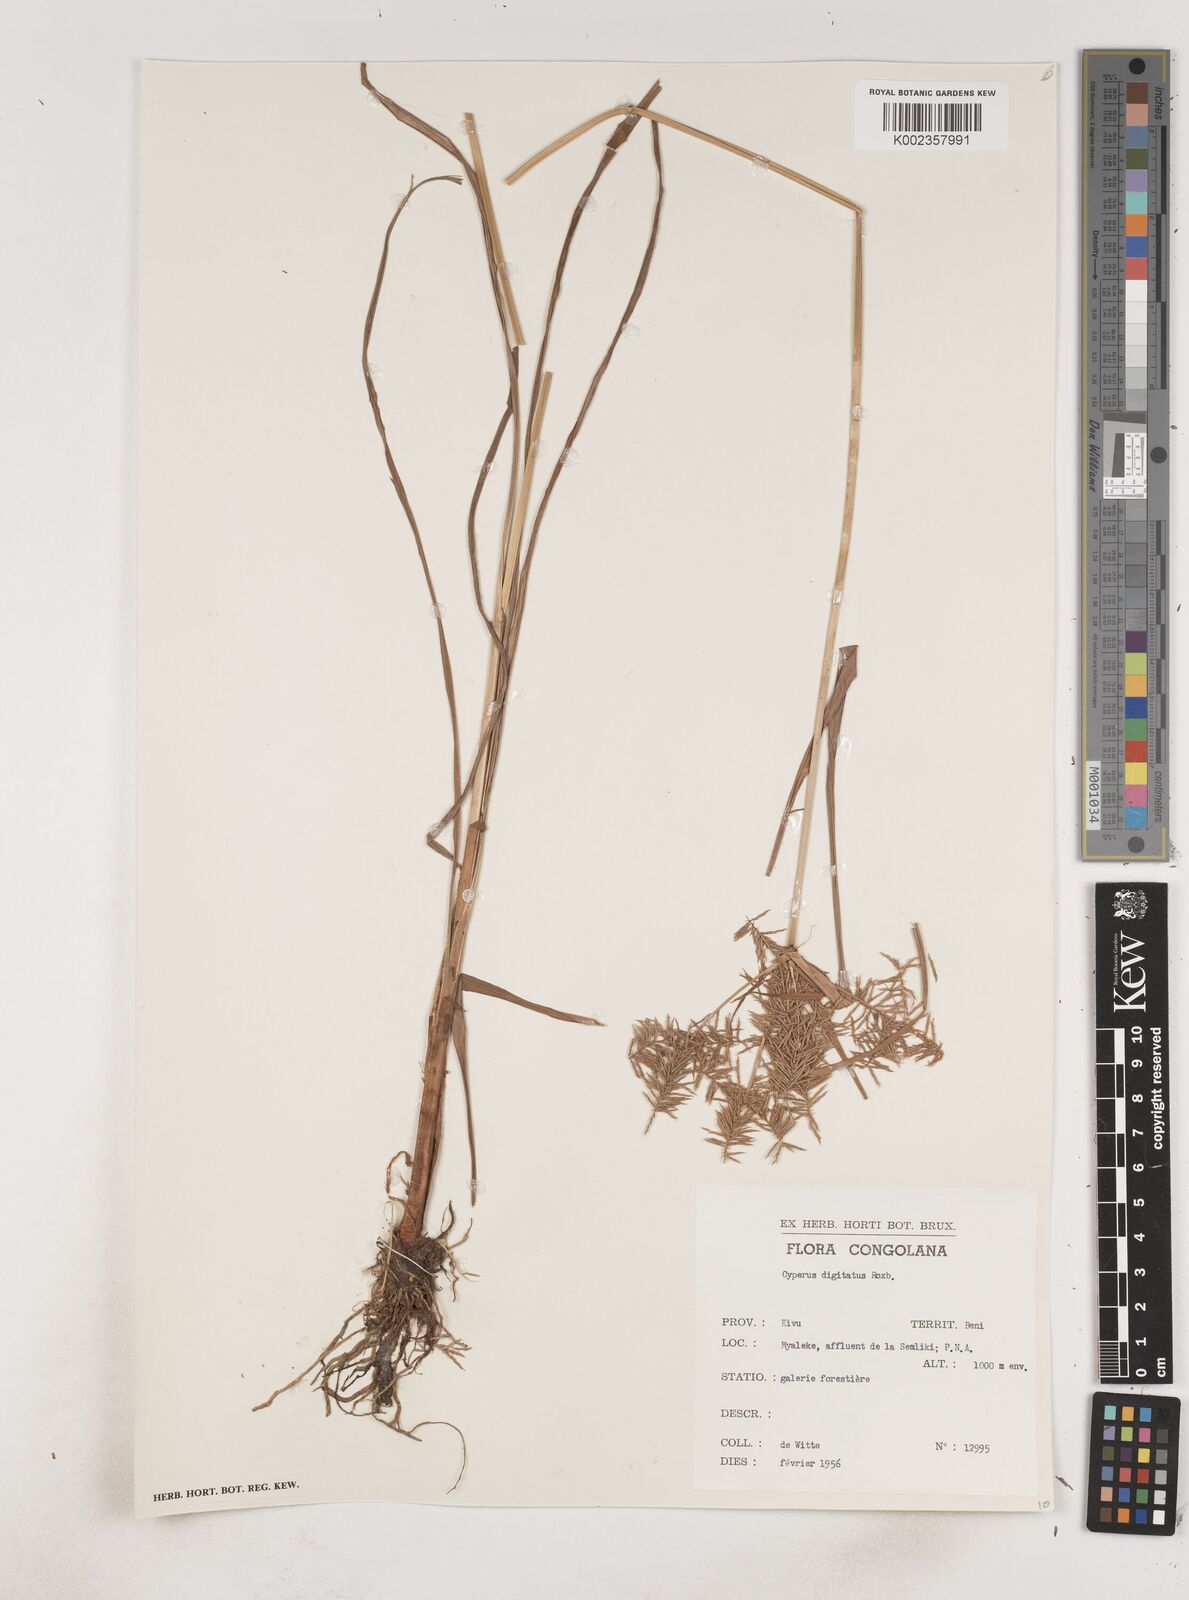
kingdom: Plantae
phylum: Tracheophyta
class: Liliopsida
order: Poales
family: Cyperaceae
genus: Cyperus
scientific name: Cyperus digitatus
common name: Finger flatsedge
